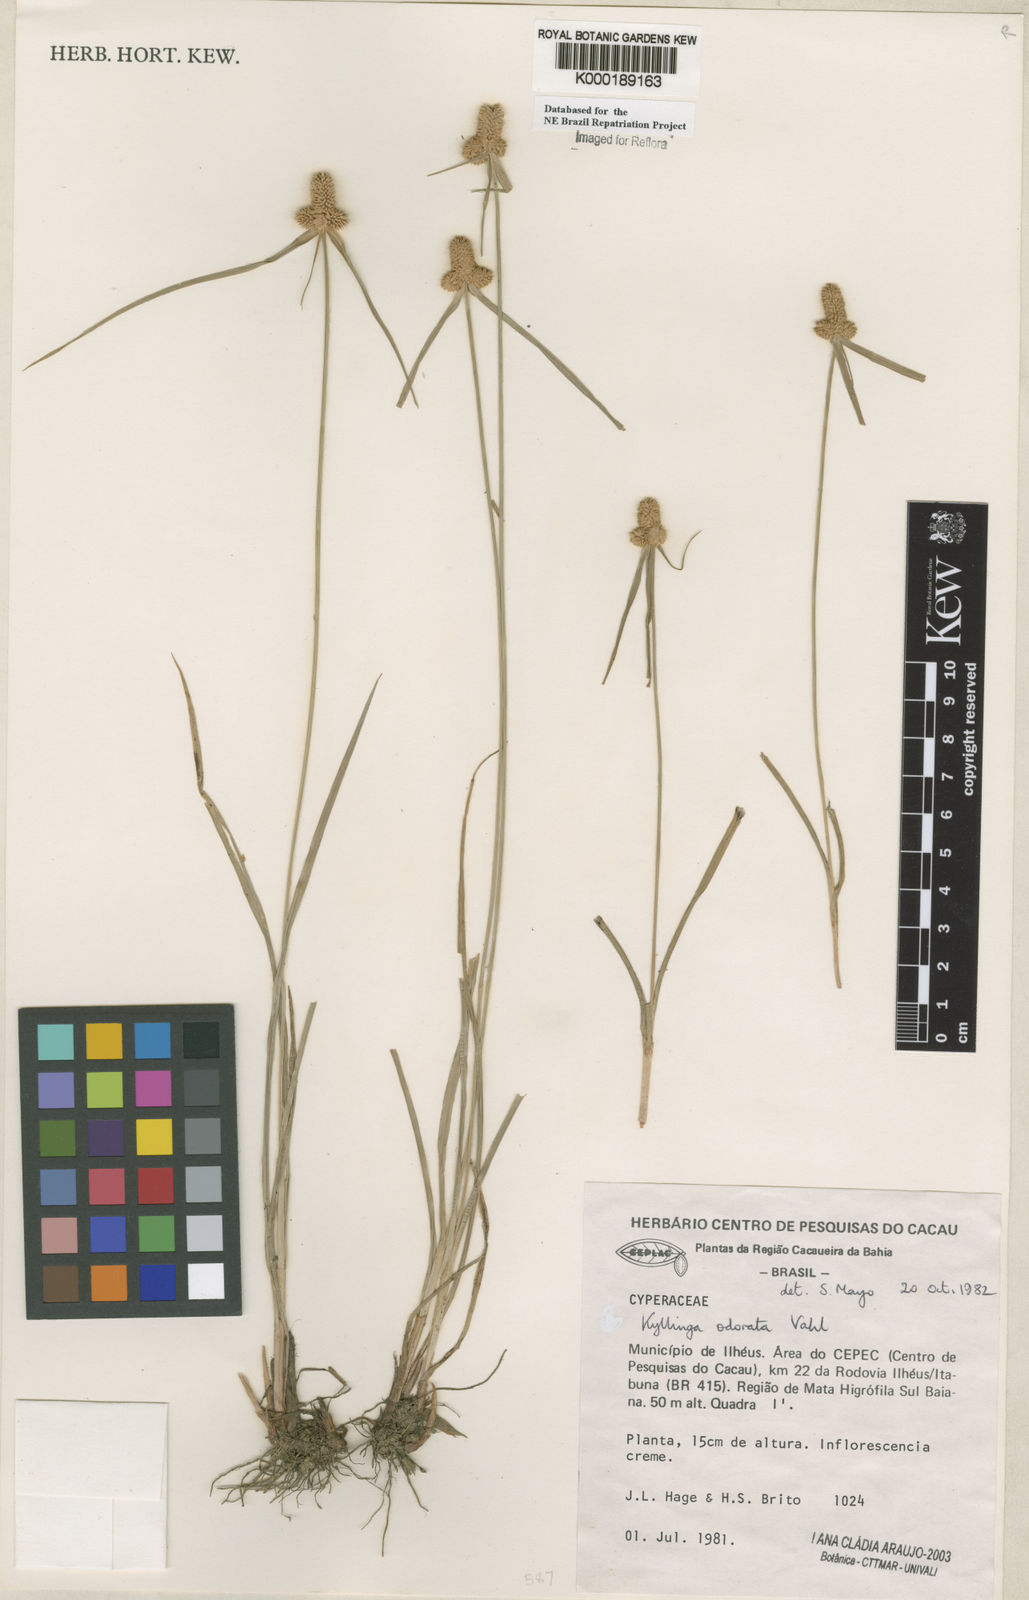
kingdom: Plantae
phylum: Tracheophyta
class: Liliopsida
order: Poales
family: Cyperaceae
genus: Cyperus
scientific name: Cyperus sesquiflorus
